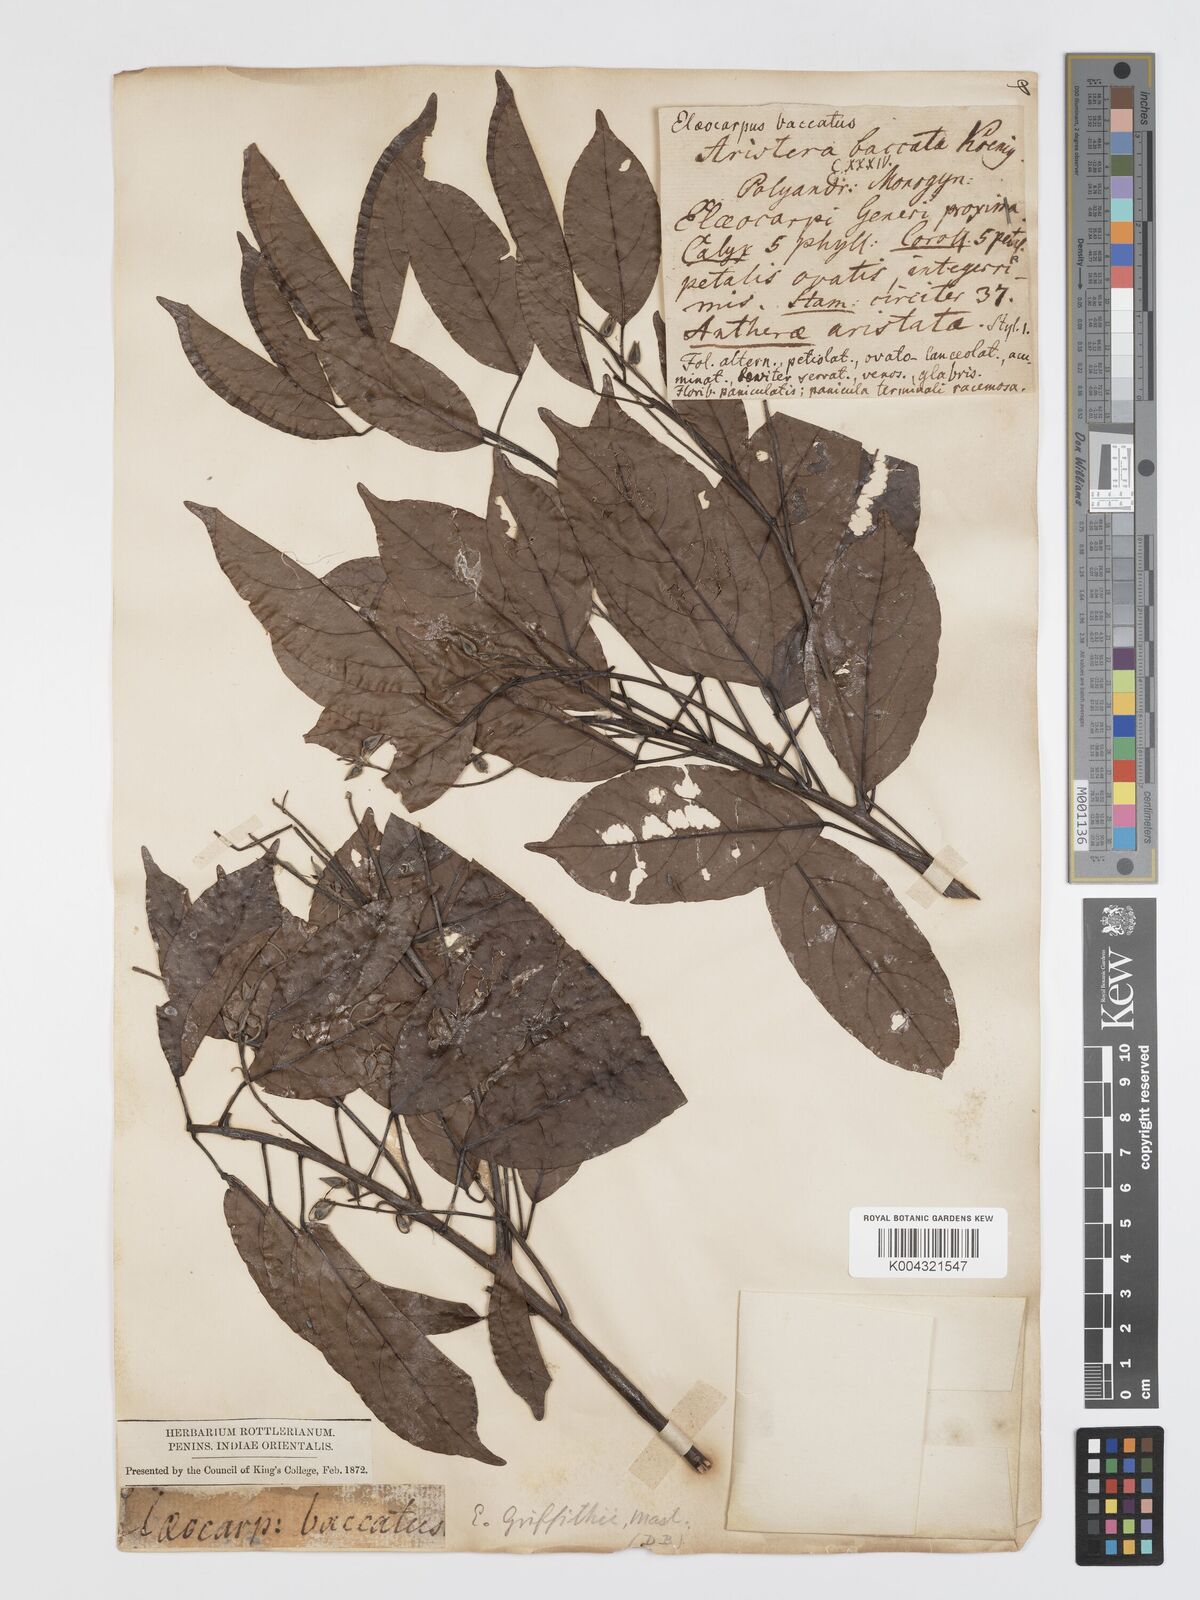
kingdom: Plantae
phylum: Tracheophyta
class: Magnoliopsida
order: Oxalidales
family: Elaeocarpaceae
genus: Elaeocarpus
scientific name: Elaeocarpus griffithii
